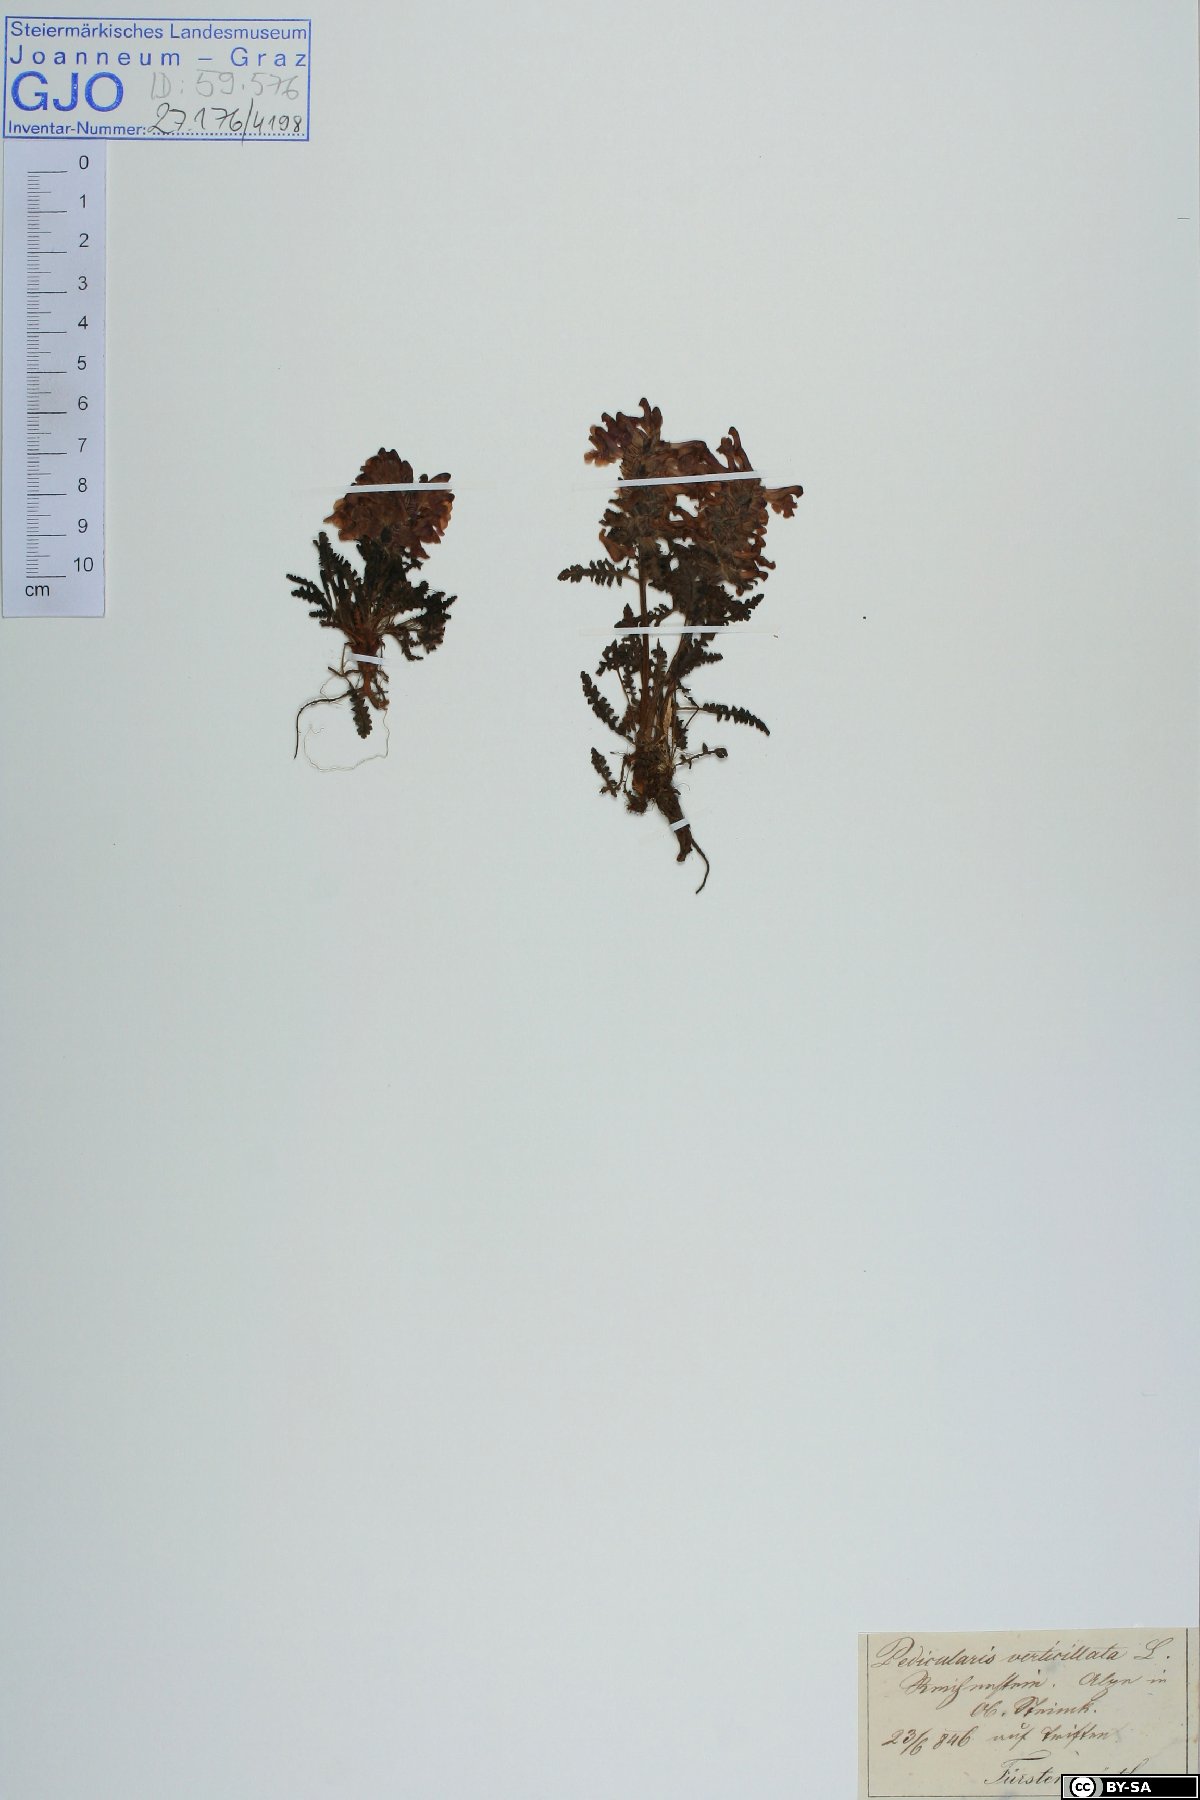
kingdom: Plantae
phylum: Tracheophyta
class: Magnoliopsida
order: Lamiales
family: Orobanchaceae
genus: Pedicularis
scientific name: Pedicularis verticillata
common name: Whorled lousewort
